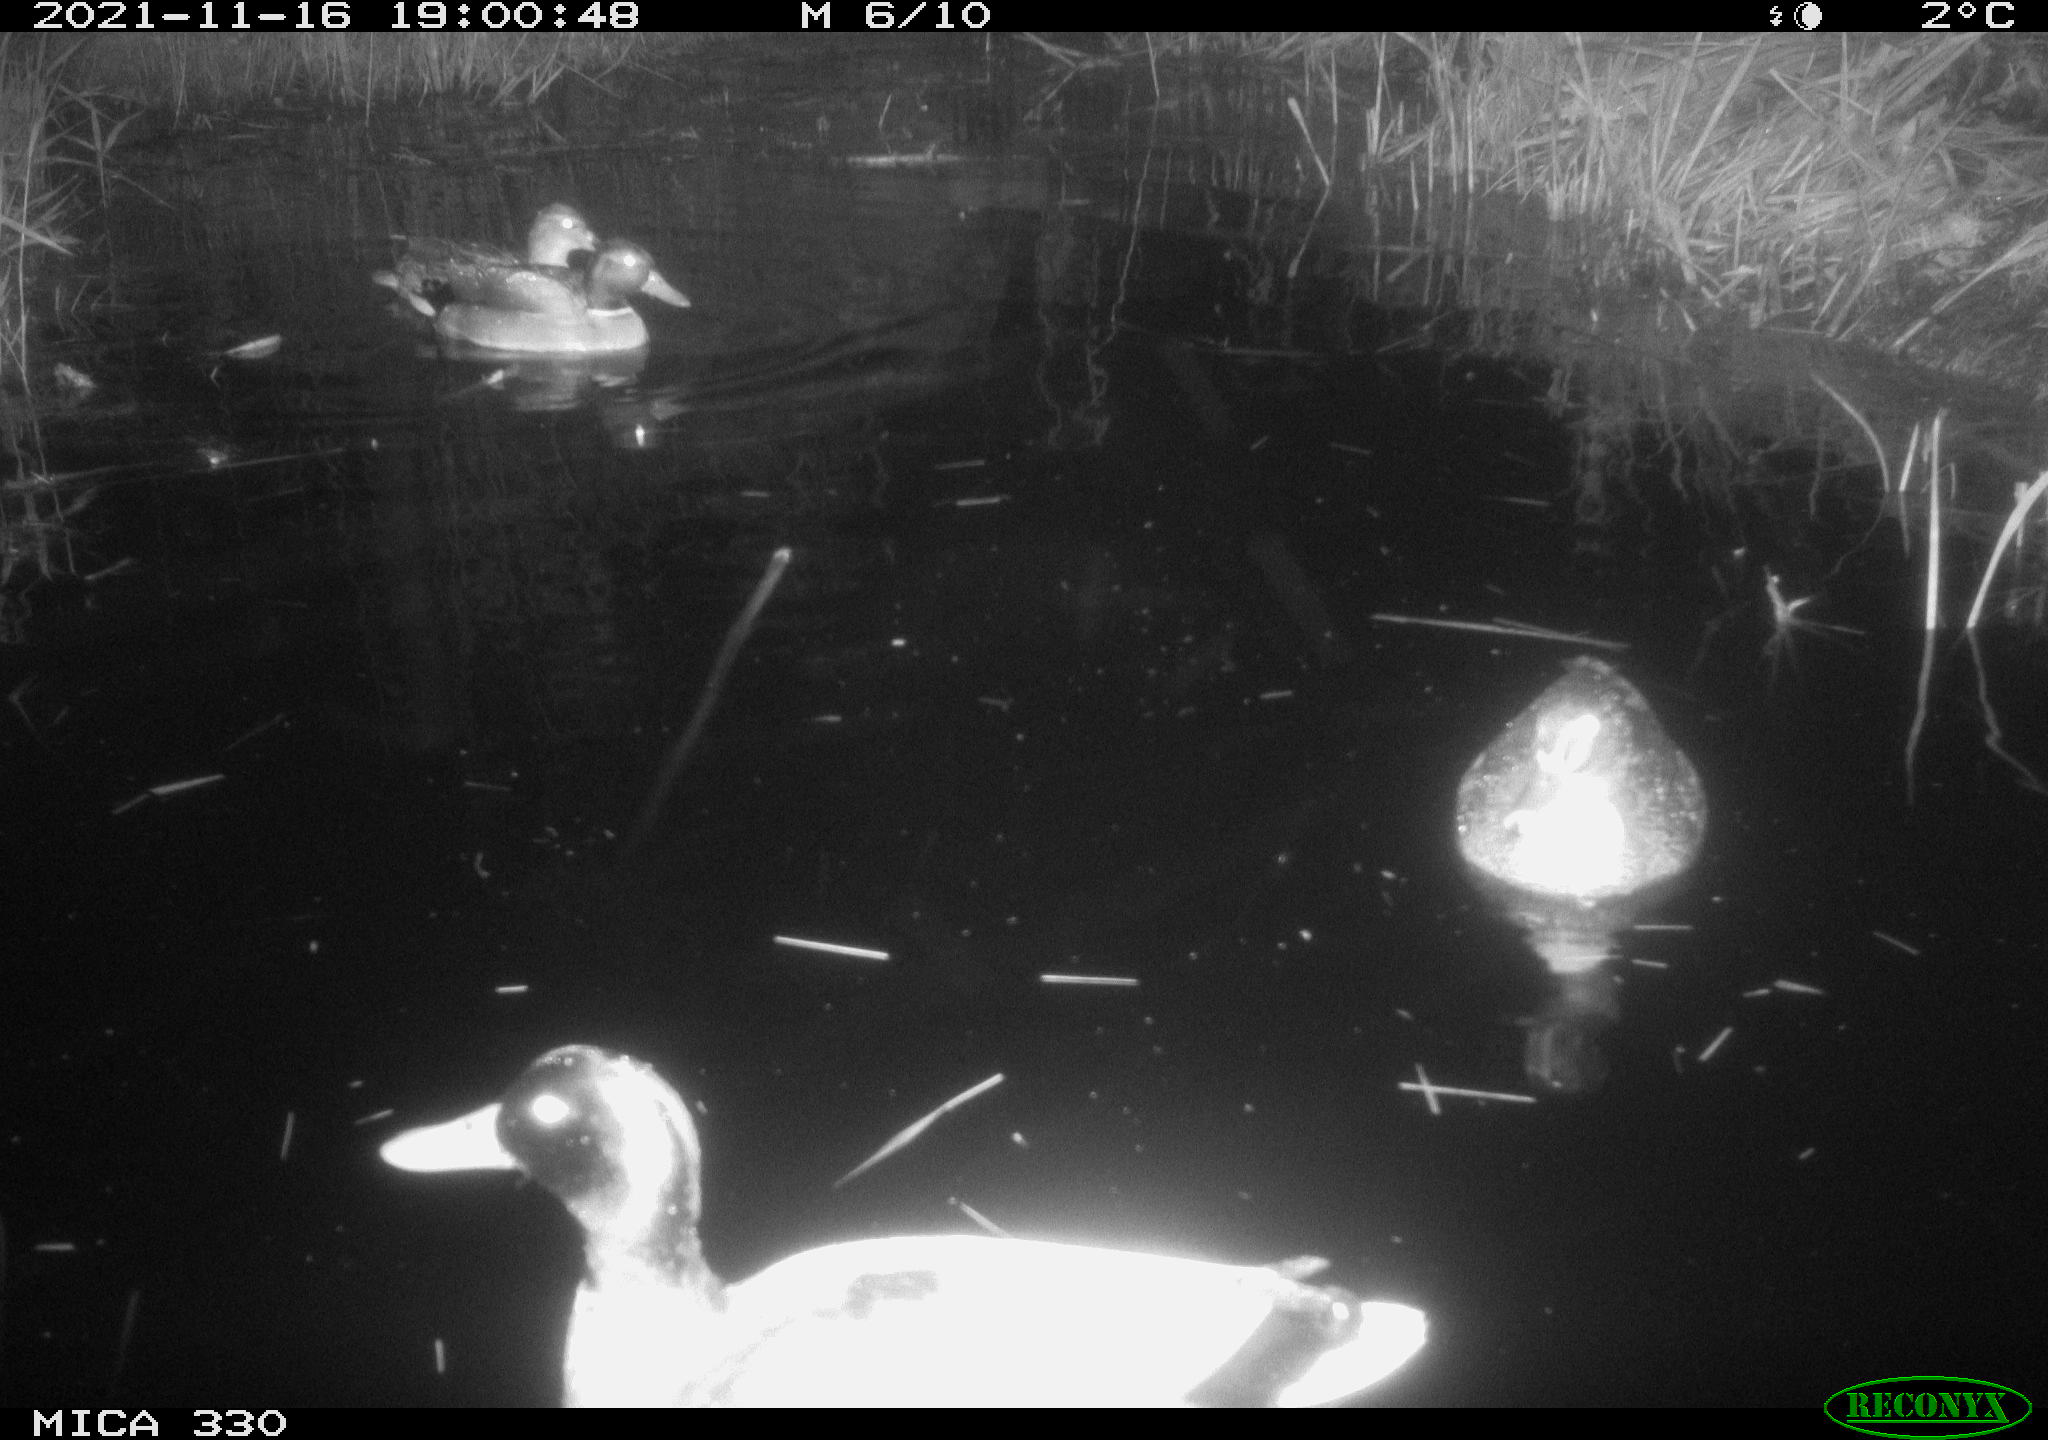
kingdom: Animalia
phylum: Chordata
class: Aves
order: Anseriformes
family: Anatidae
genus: Anas
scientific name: Anas platyrhynchos
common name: Mallard
